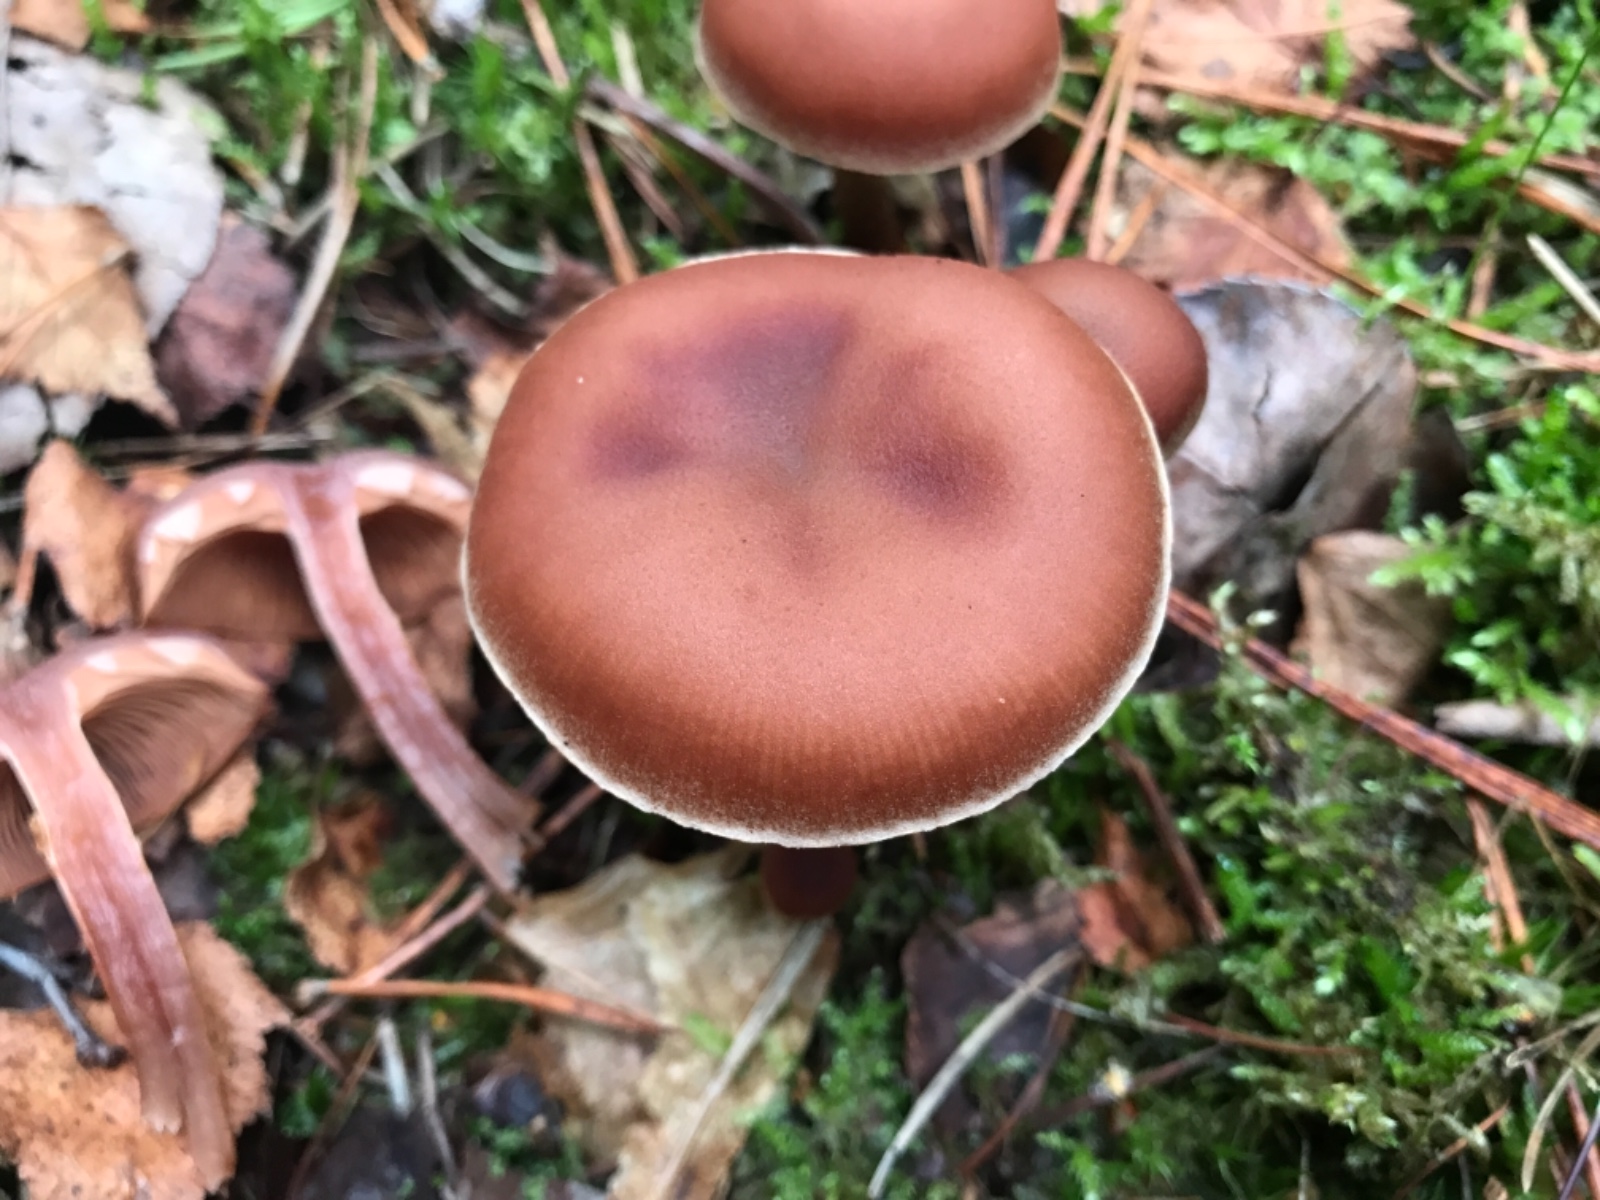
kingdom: Fungi
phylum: Basidiomycota
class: Agaricomycetes
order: Agaricales
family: Tubariaceae
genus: Tubaria
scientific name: Tubaria confragosa
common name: ring-fnughat
